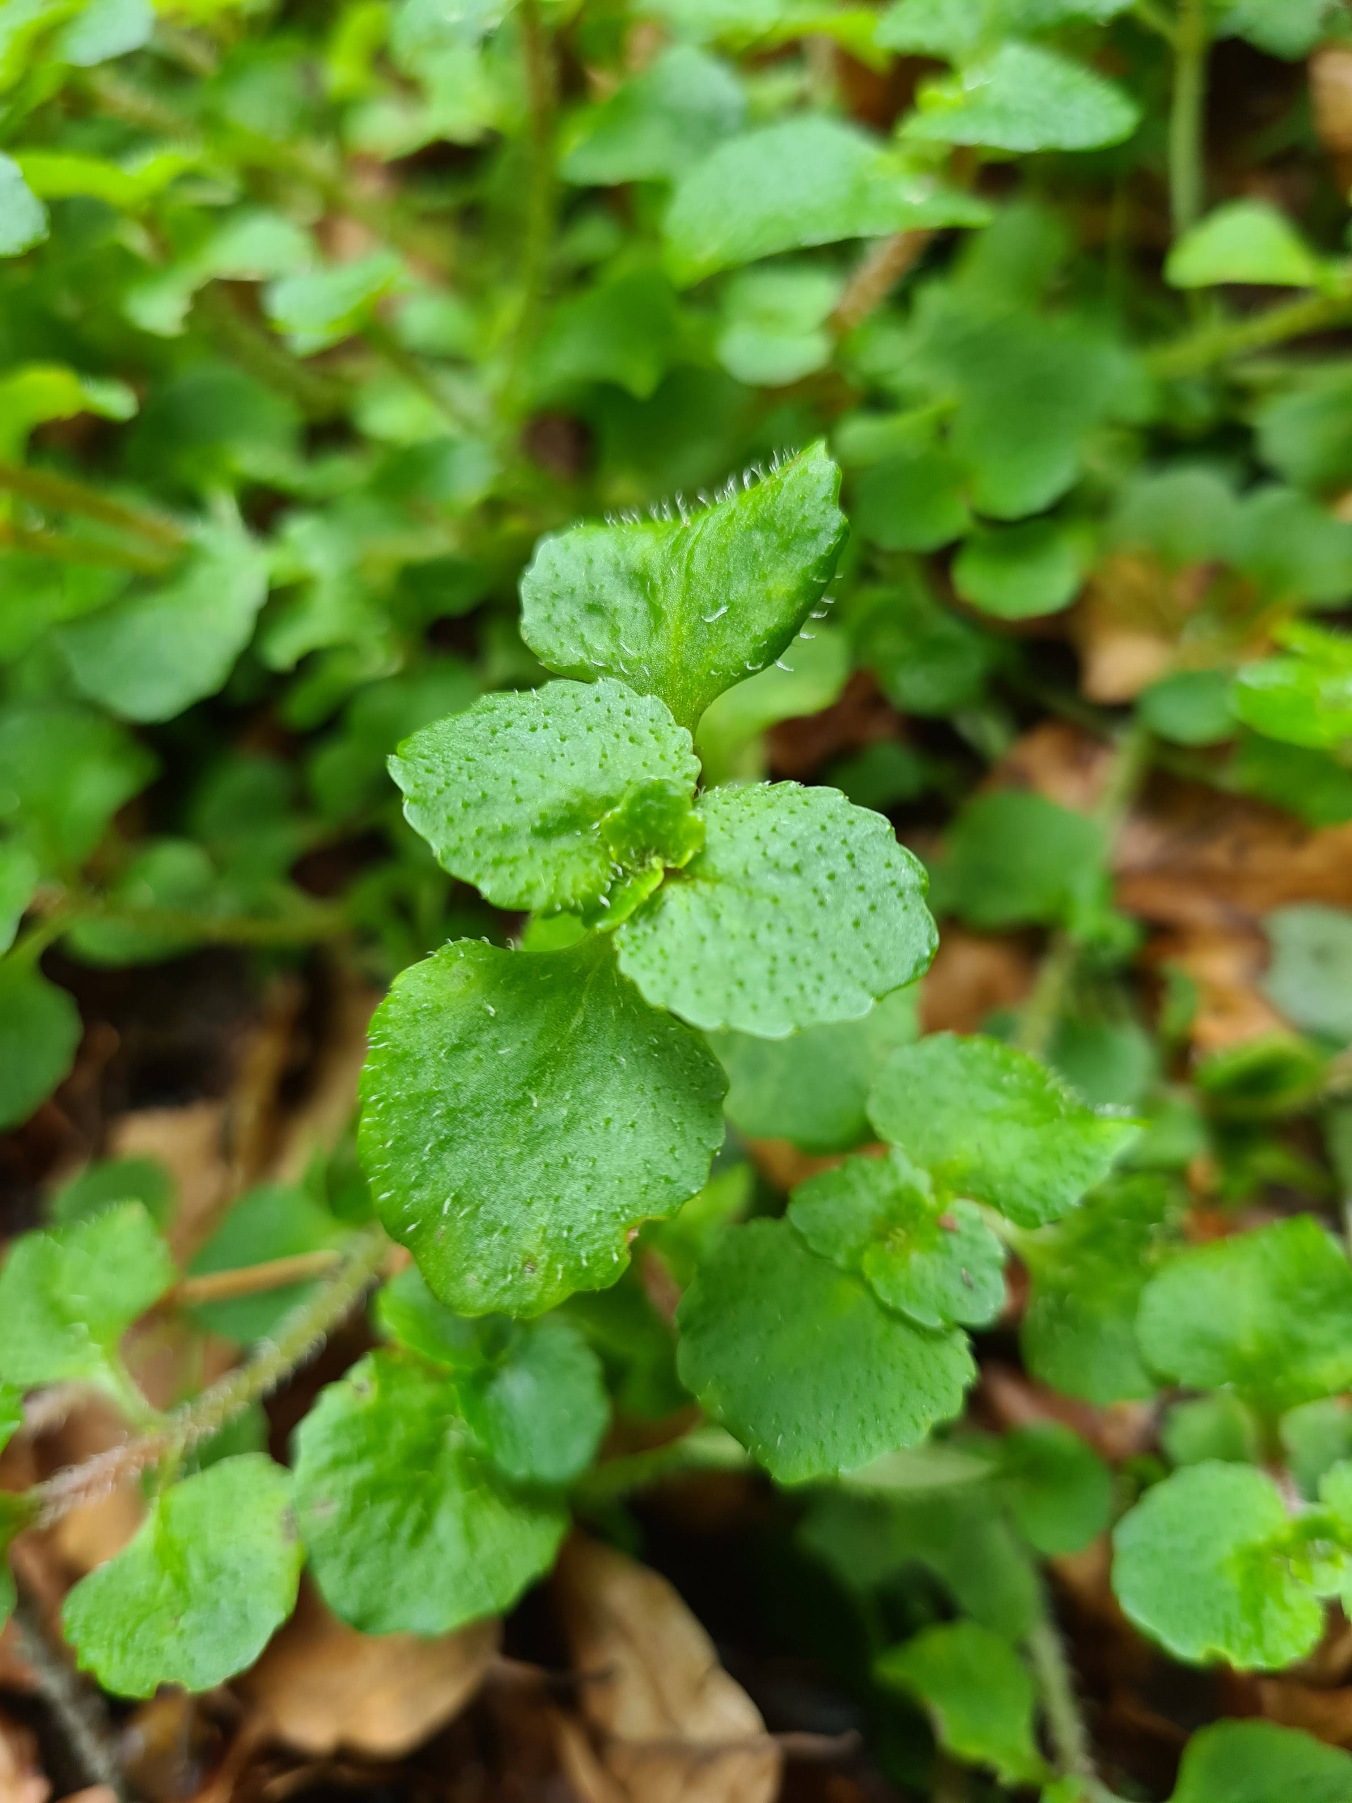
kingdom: Plantae
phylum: Tracheophyta
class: Magnoliopsida
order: Saxifragales
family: Saxifragaceae
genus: Chrysosplenium
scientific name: Chrysosplenium oppositifolium
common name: Småbladet milturt
